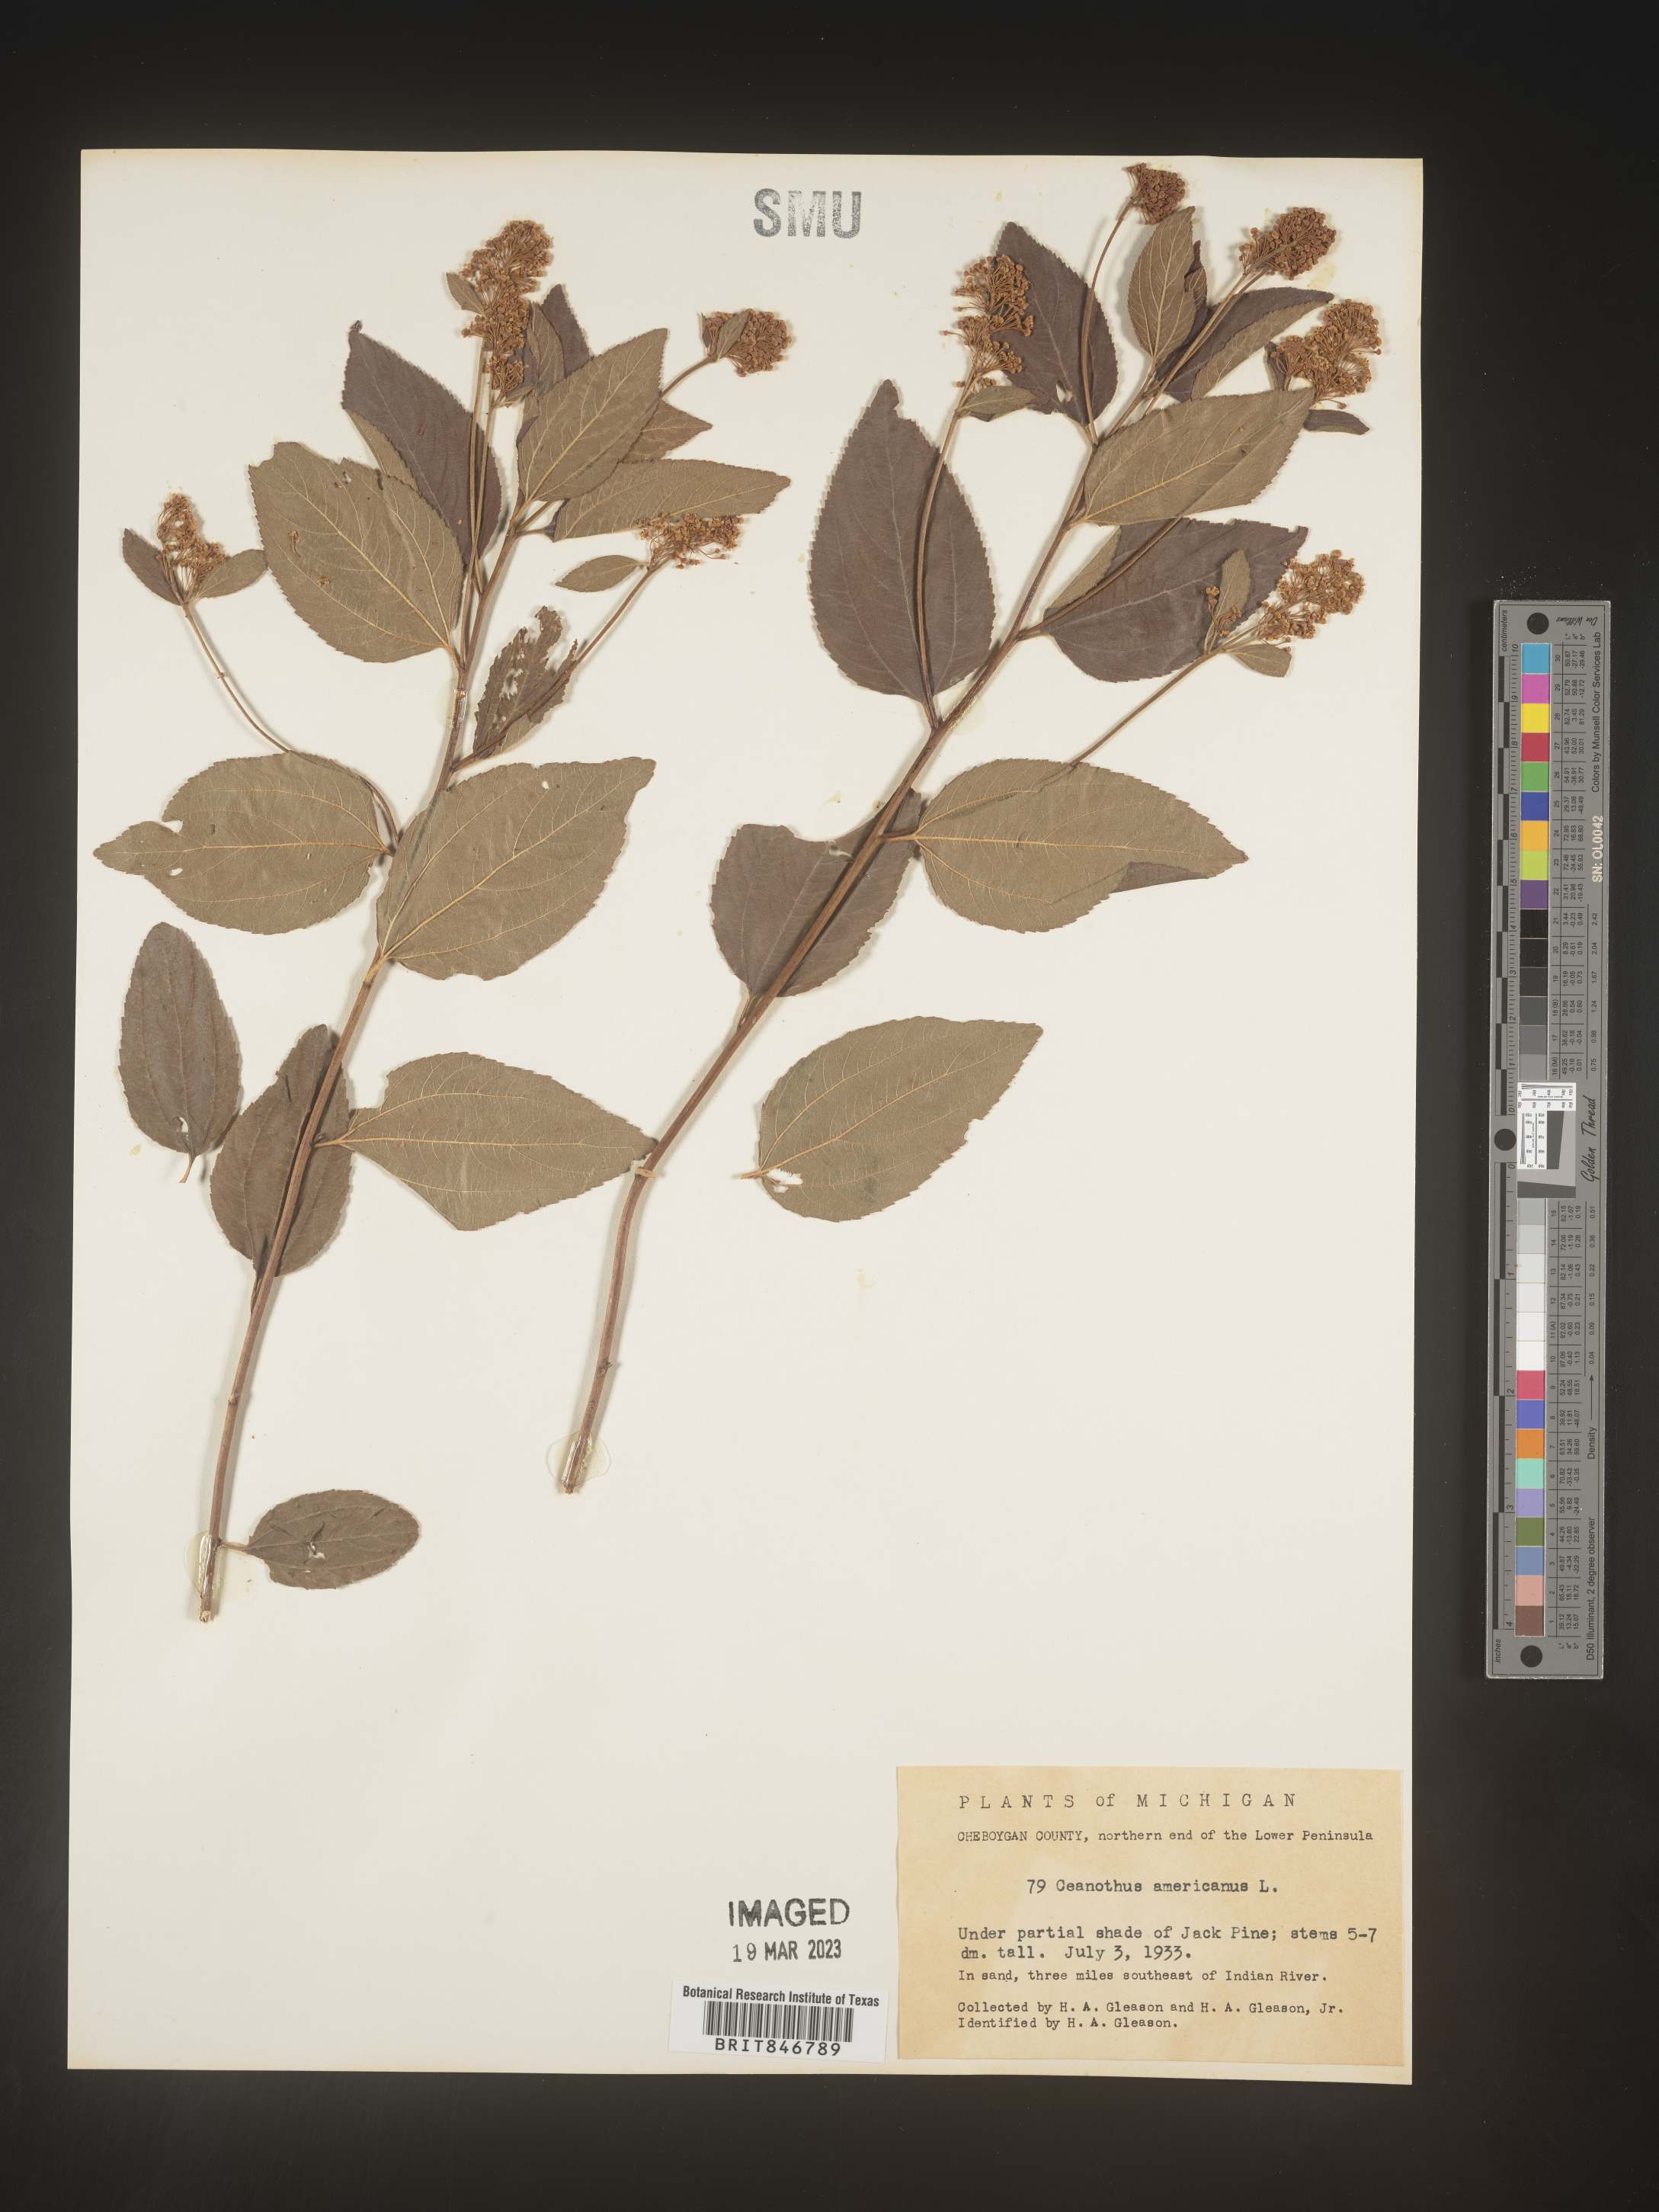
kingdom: Plantae
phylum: Tracheophyta
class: Magnoliopsida
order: Rosales
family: Rhamnaceae
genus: Ceanothus
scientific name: Ceanothus americanus
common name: Redroot
